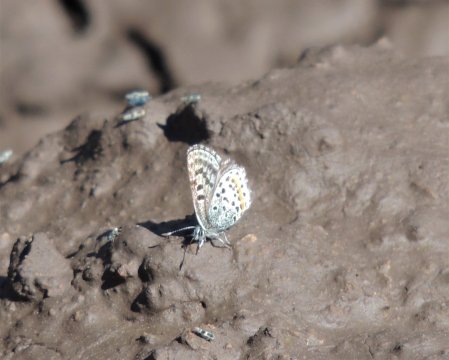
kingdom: Animalia
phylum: Arthropoda
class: Insecta
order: Lepidoptera
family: Lycaenidae
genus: Euphilotes
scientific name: Euphilotes battoides
